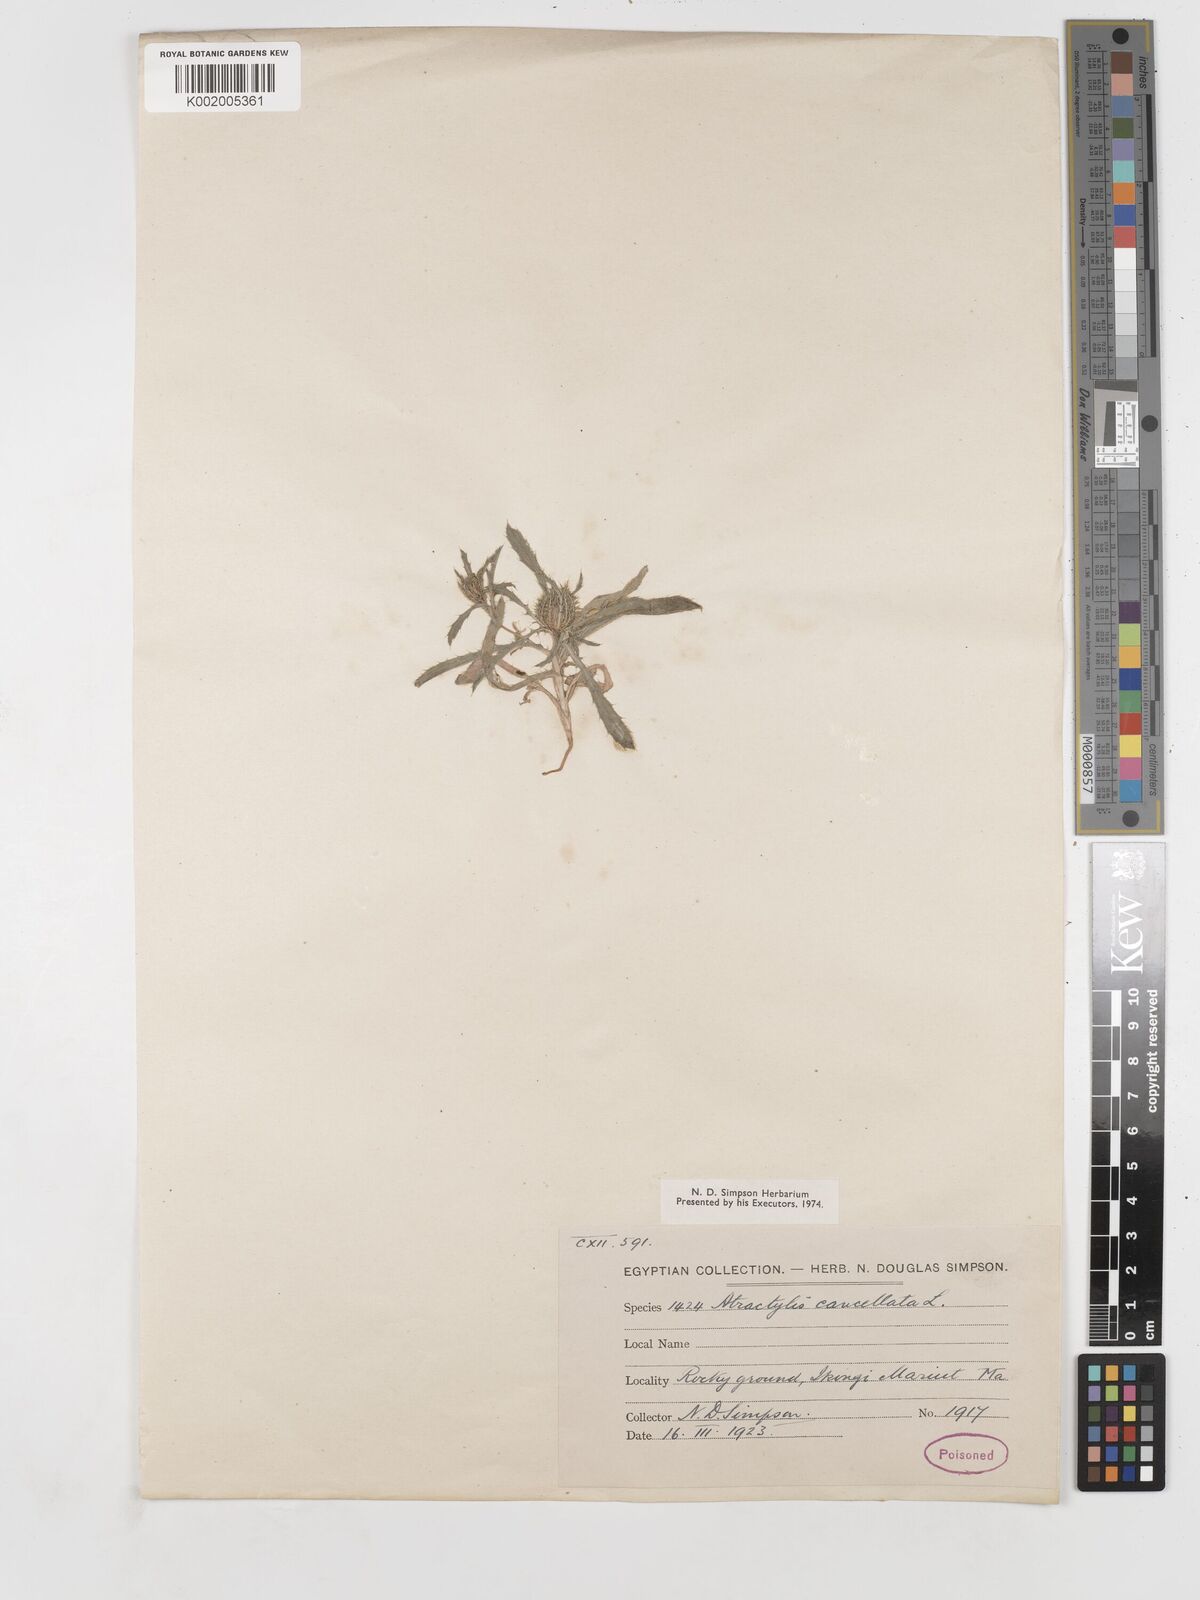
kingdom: Plantae
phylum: Tracheophyta
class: Magnoliopsida
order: Asterales
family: Asteraceae
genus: Atractylis
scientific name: Atractylis cancellata
